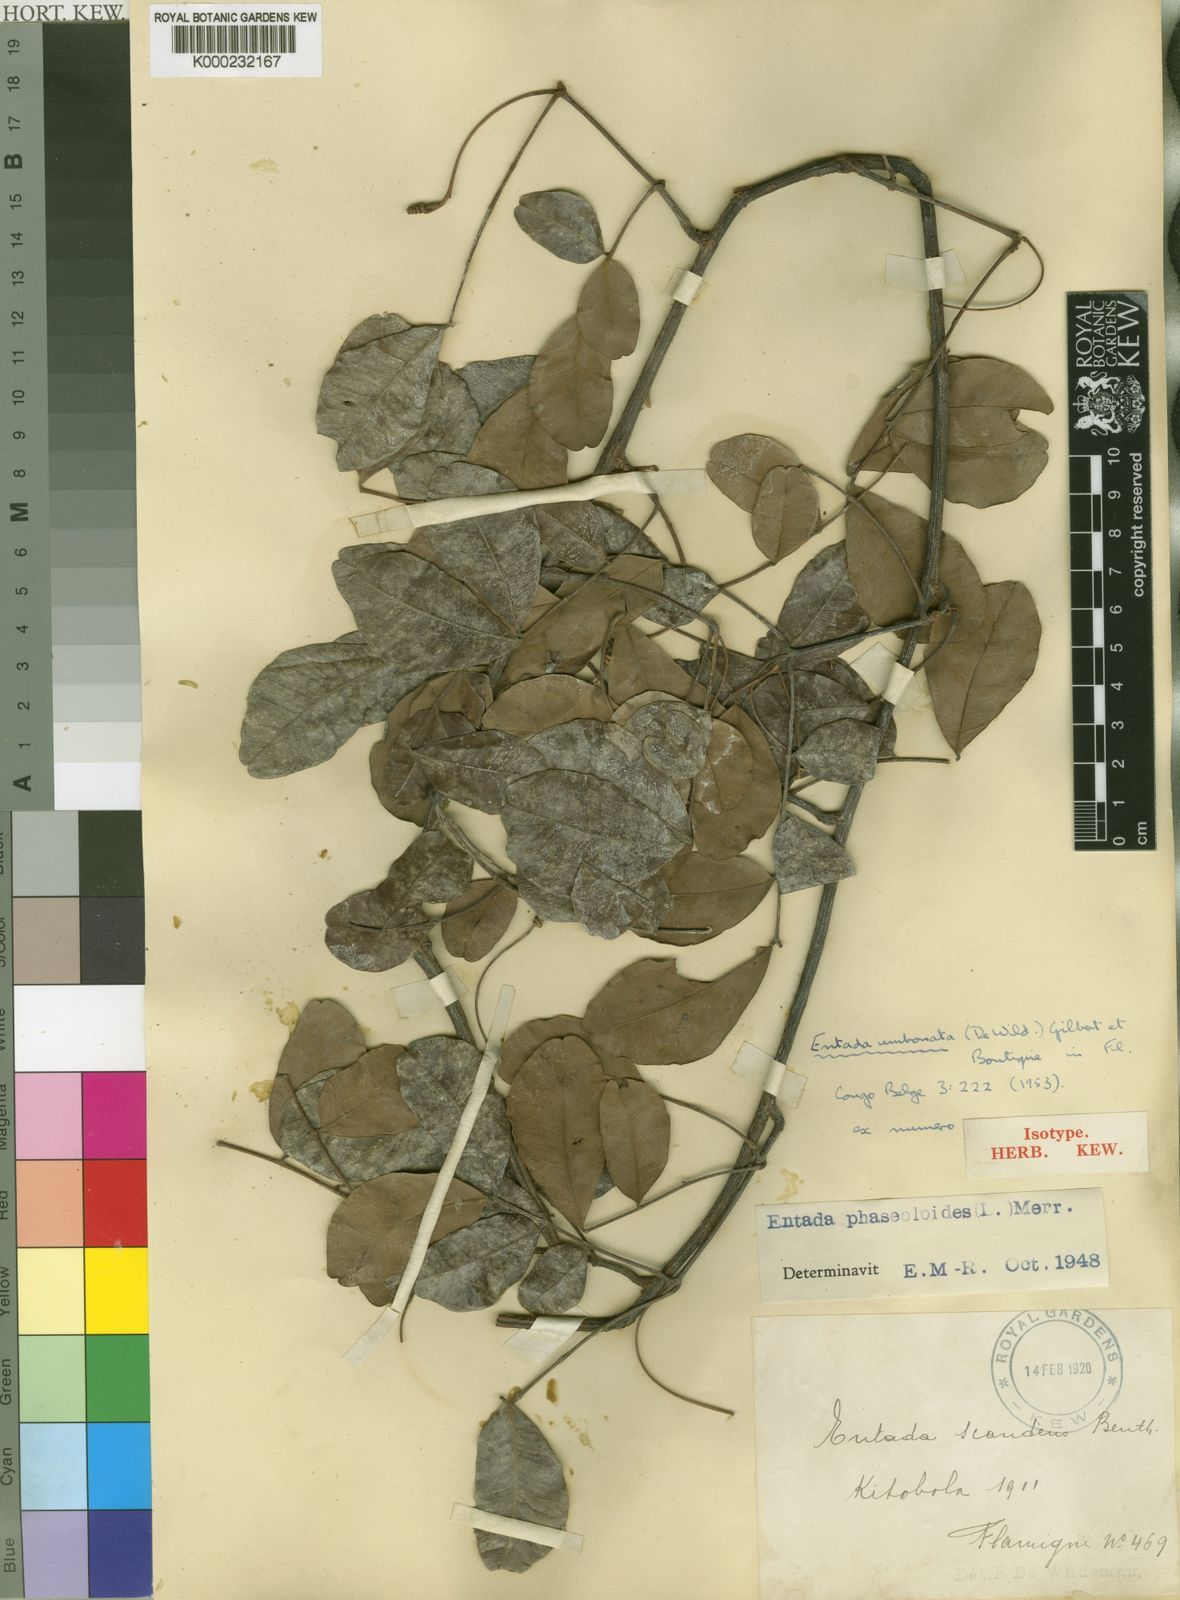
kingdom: Plantae
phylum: Tracheophyta
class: Magnoliopsida
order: Fabales
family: Fabaceae
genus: Entada
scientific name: Entada
